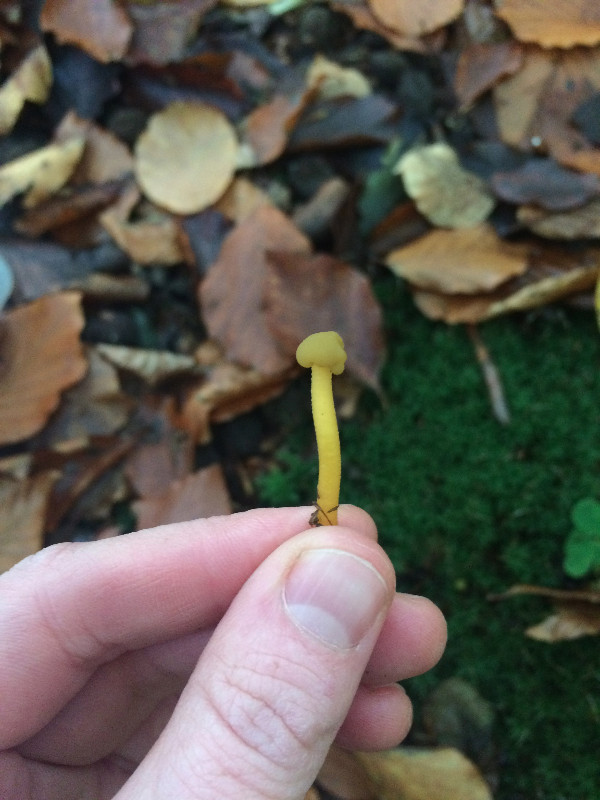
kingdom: Fungi
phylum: Ascomycota
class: Leotiomycetes
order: Leotiales
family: Leotiaceae
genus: Leotia
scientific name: Leotia lubrica
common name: ravsvamp
